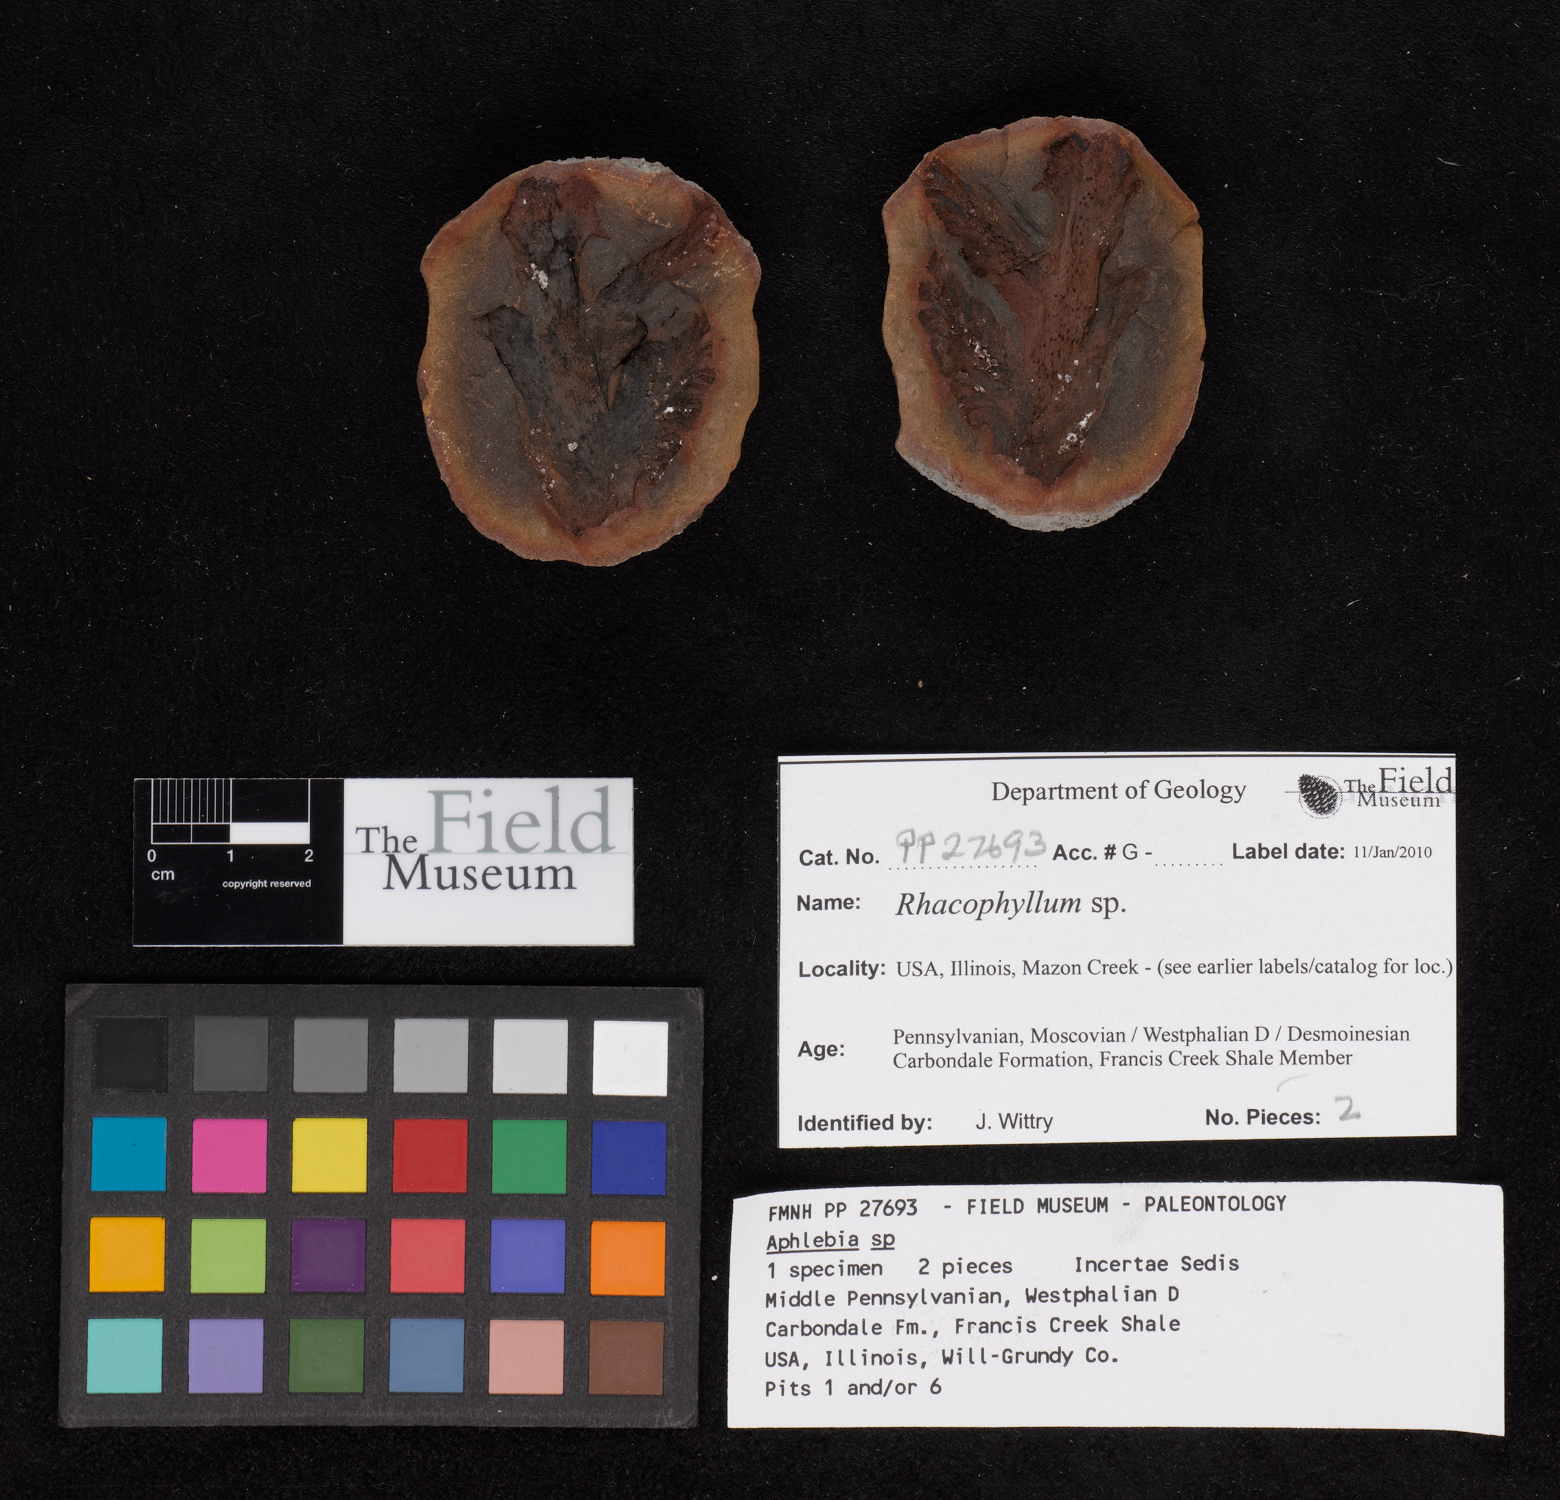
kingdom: Plantae
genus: Rhacophyllum
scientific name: Rhacophyllum
